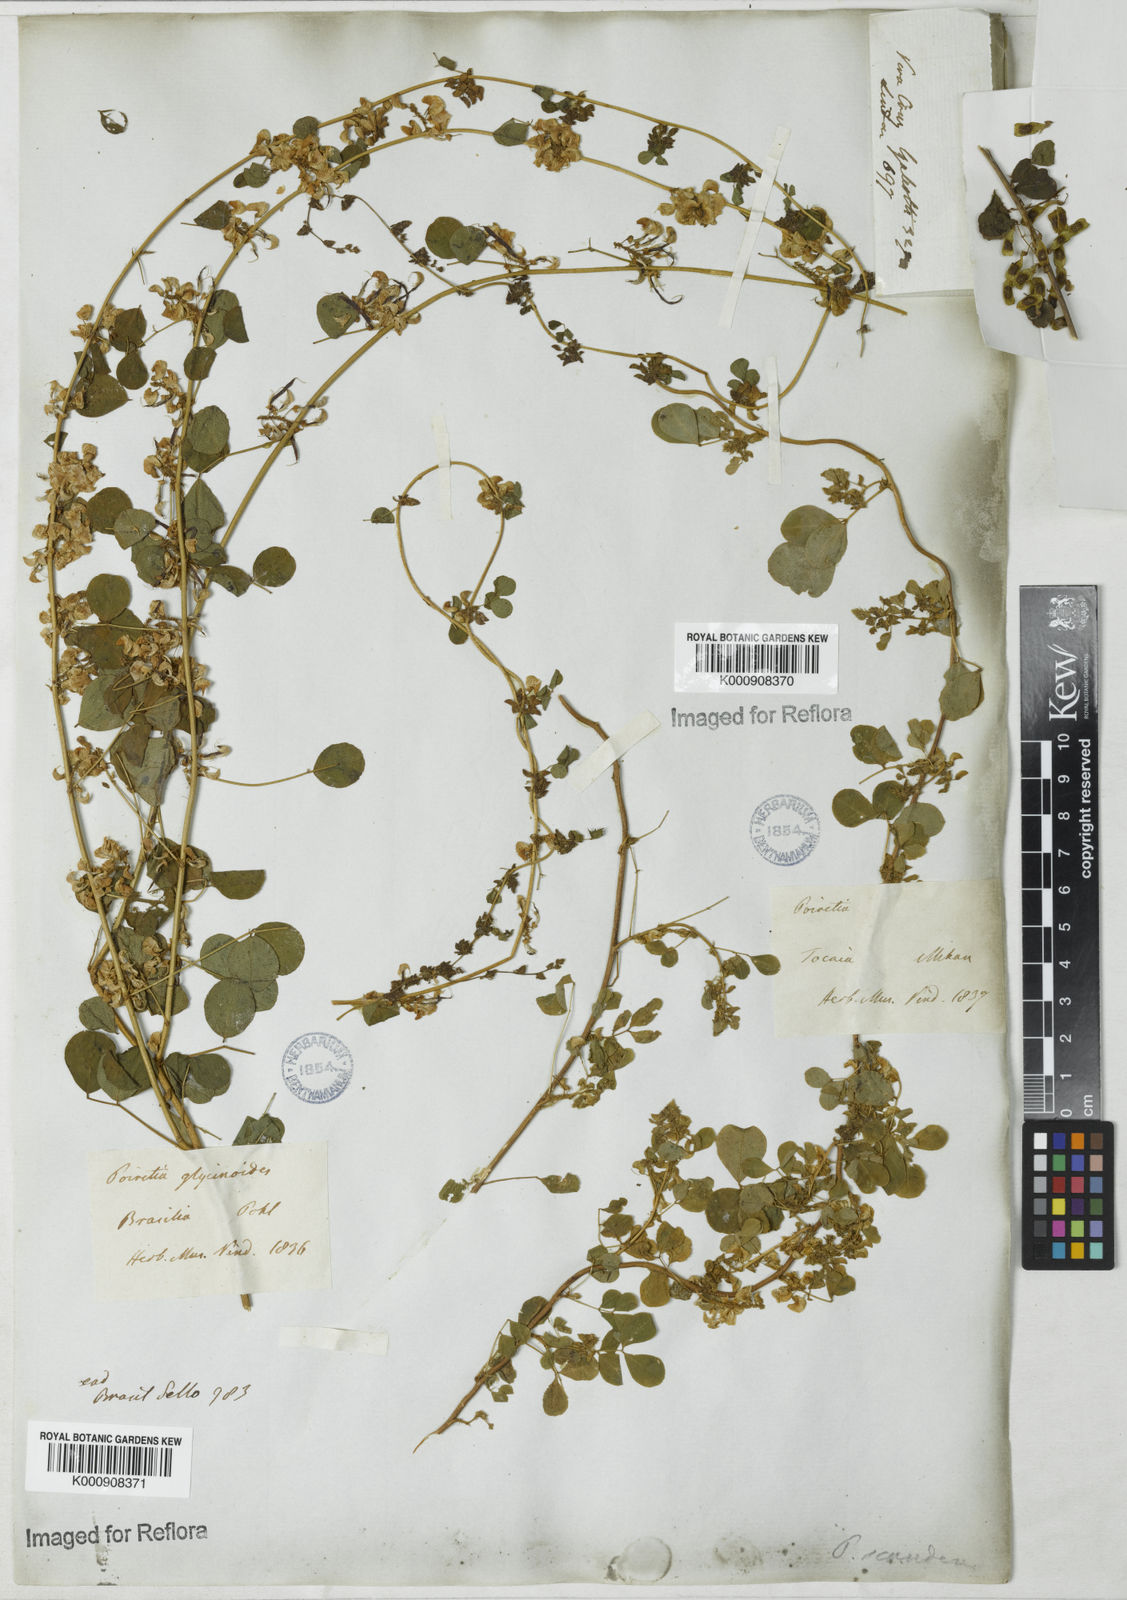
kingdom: Plantae
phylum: Tracheophyta
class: Magnoliopsida
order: Fabales
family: Fabaceae
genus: Poiretia
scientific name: Poiretia punctata
